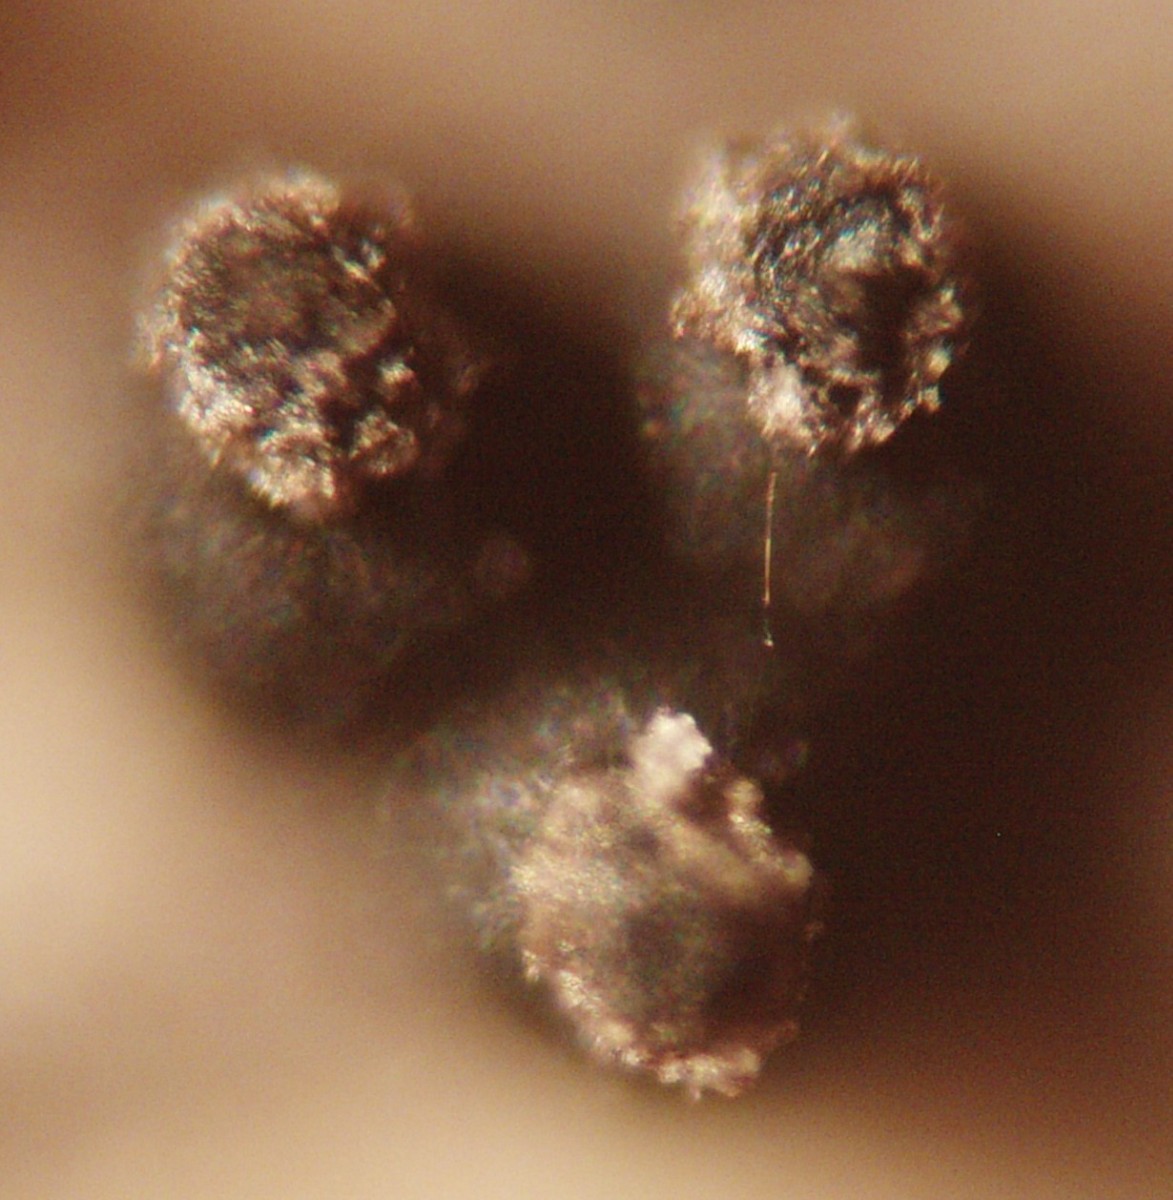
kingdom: Fungi
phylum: Ascomycota
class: Dothideomycetes
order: Pleosporales
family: Leptosphaeriaceae
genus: Leptosphaeria
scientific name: Leptosphaeria acuta
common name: spids kulkegle
